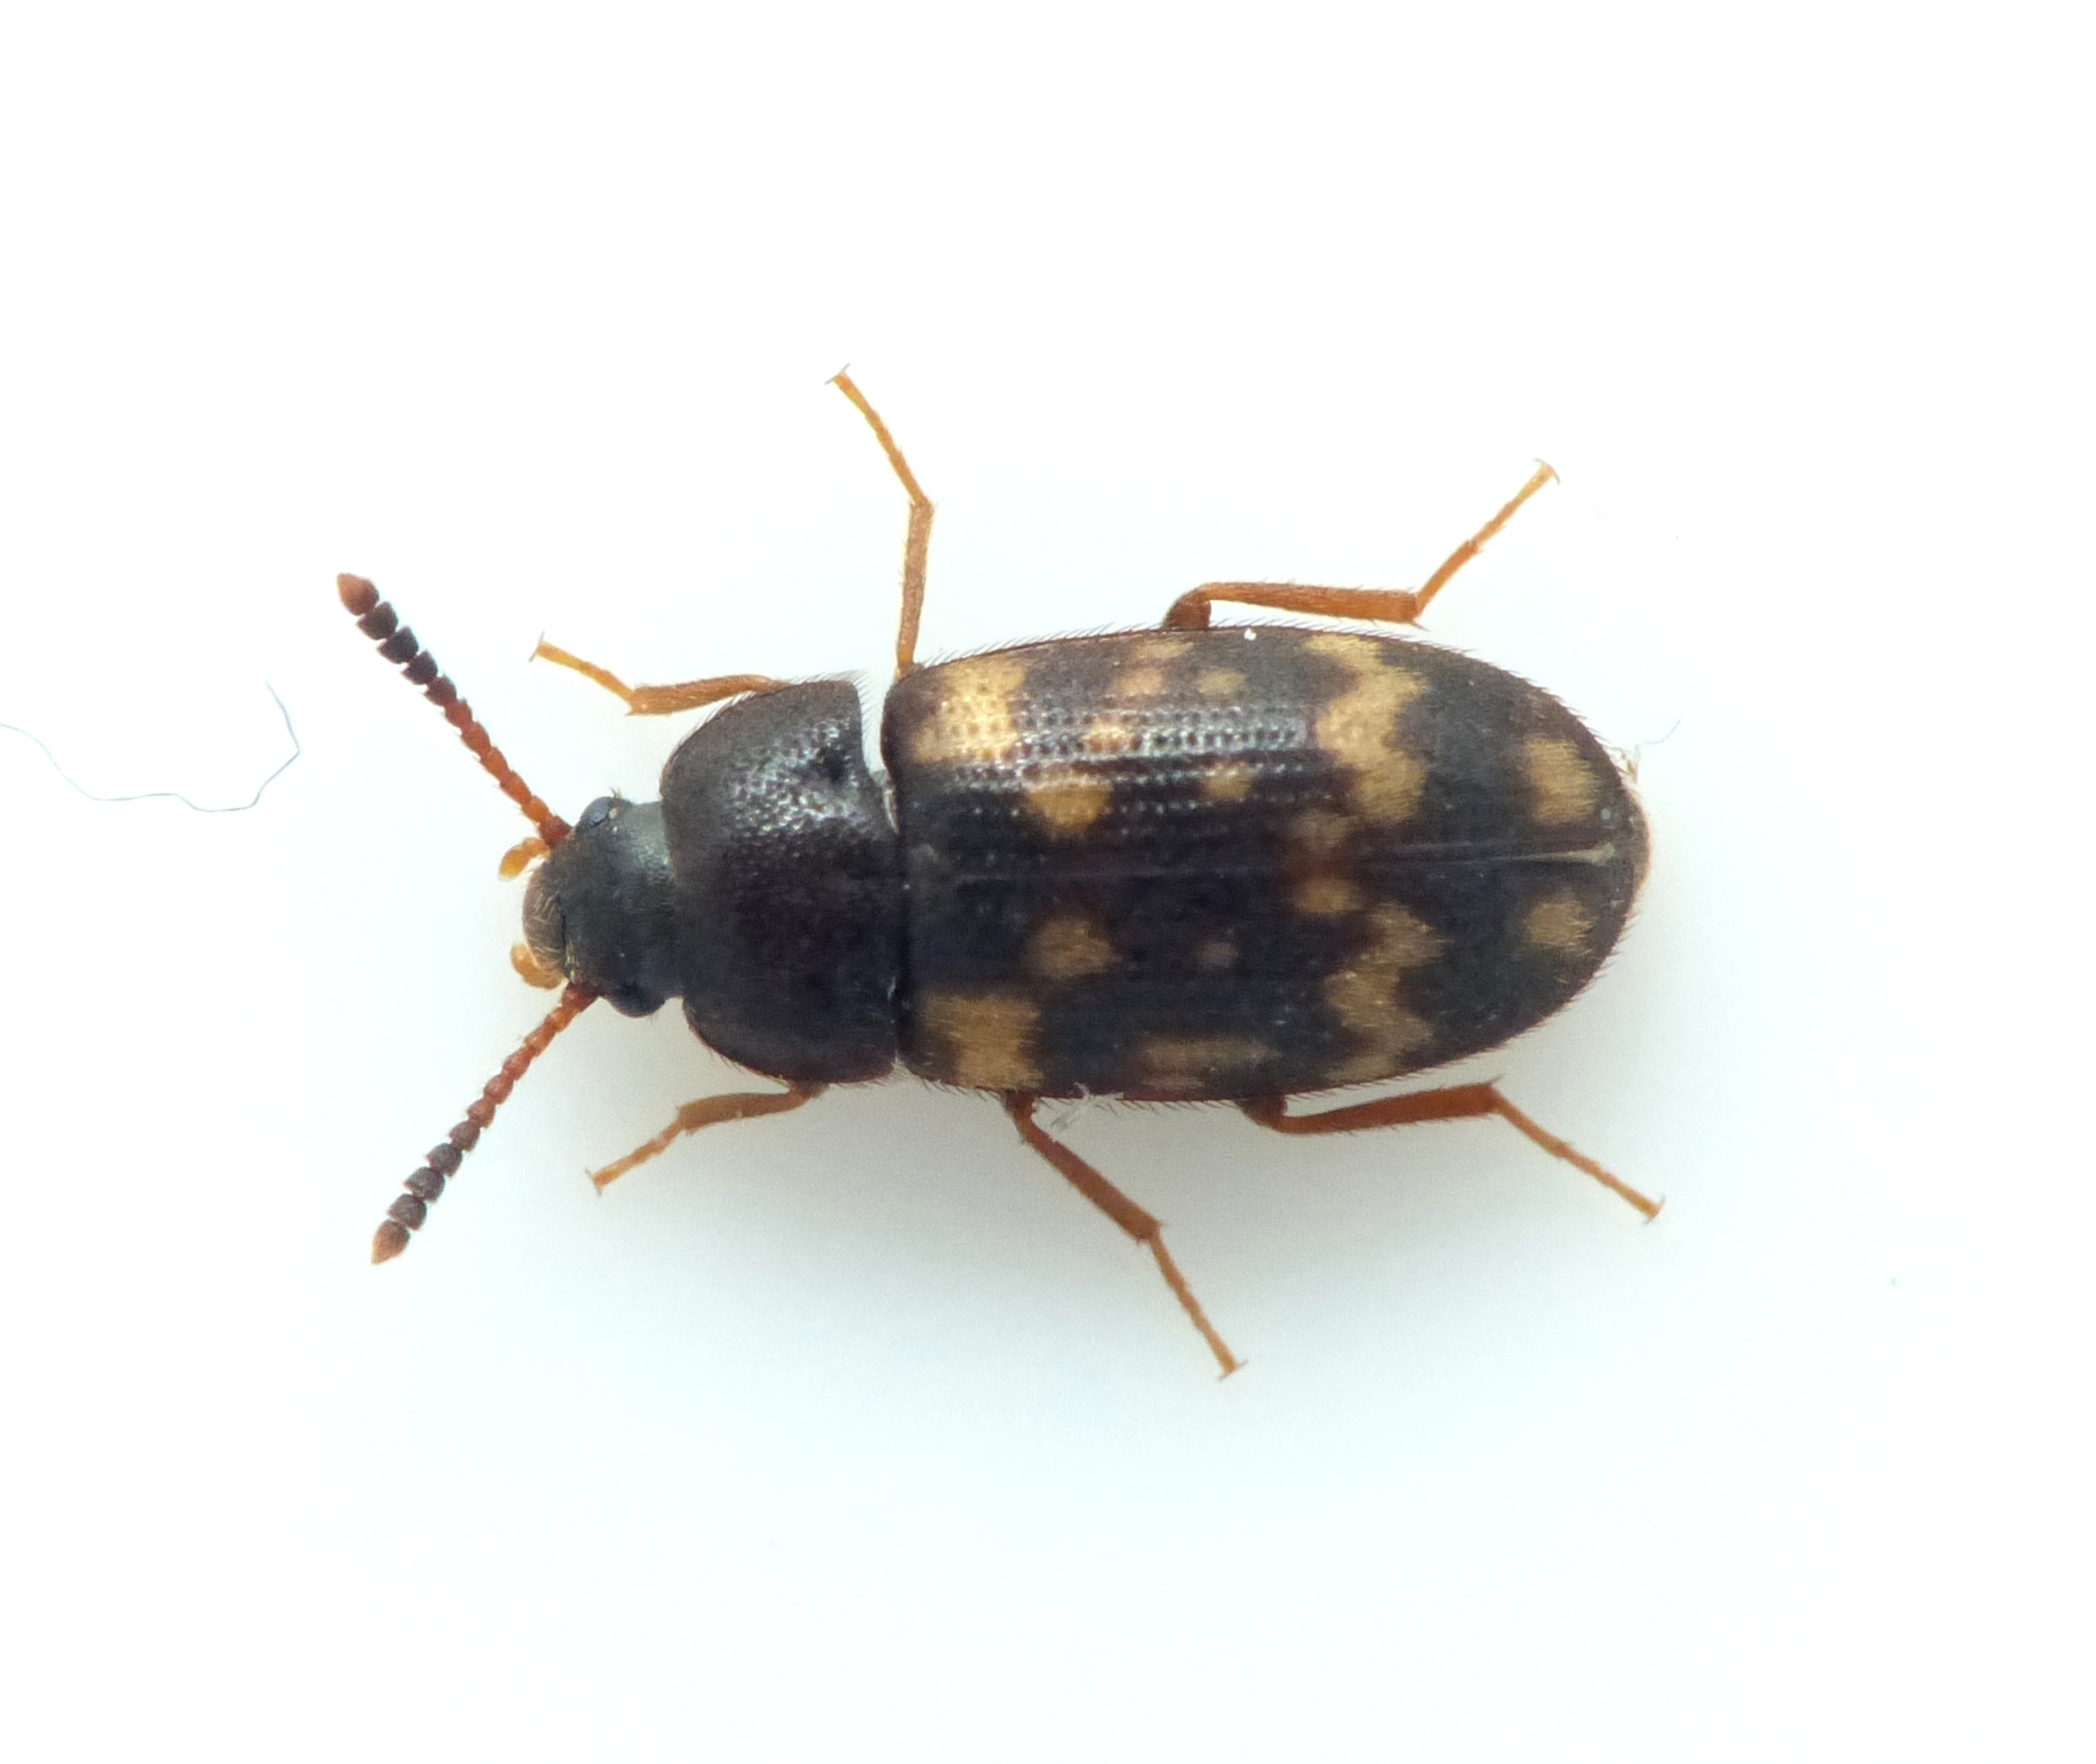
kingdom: Animalia
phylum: Arthropoda
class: Insecta
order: Coleoptera
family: Mycetophagidae
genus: Mycetophagus
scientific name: Mycetophagus atomarius
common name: Gulplettet svampebille
